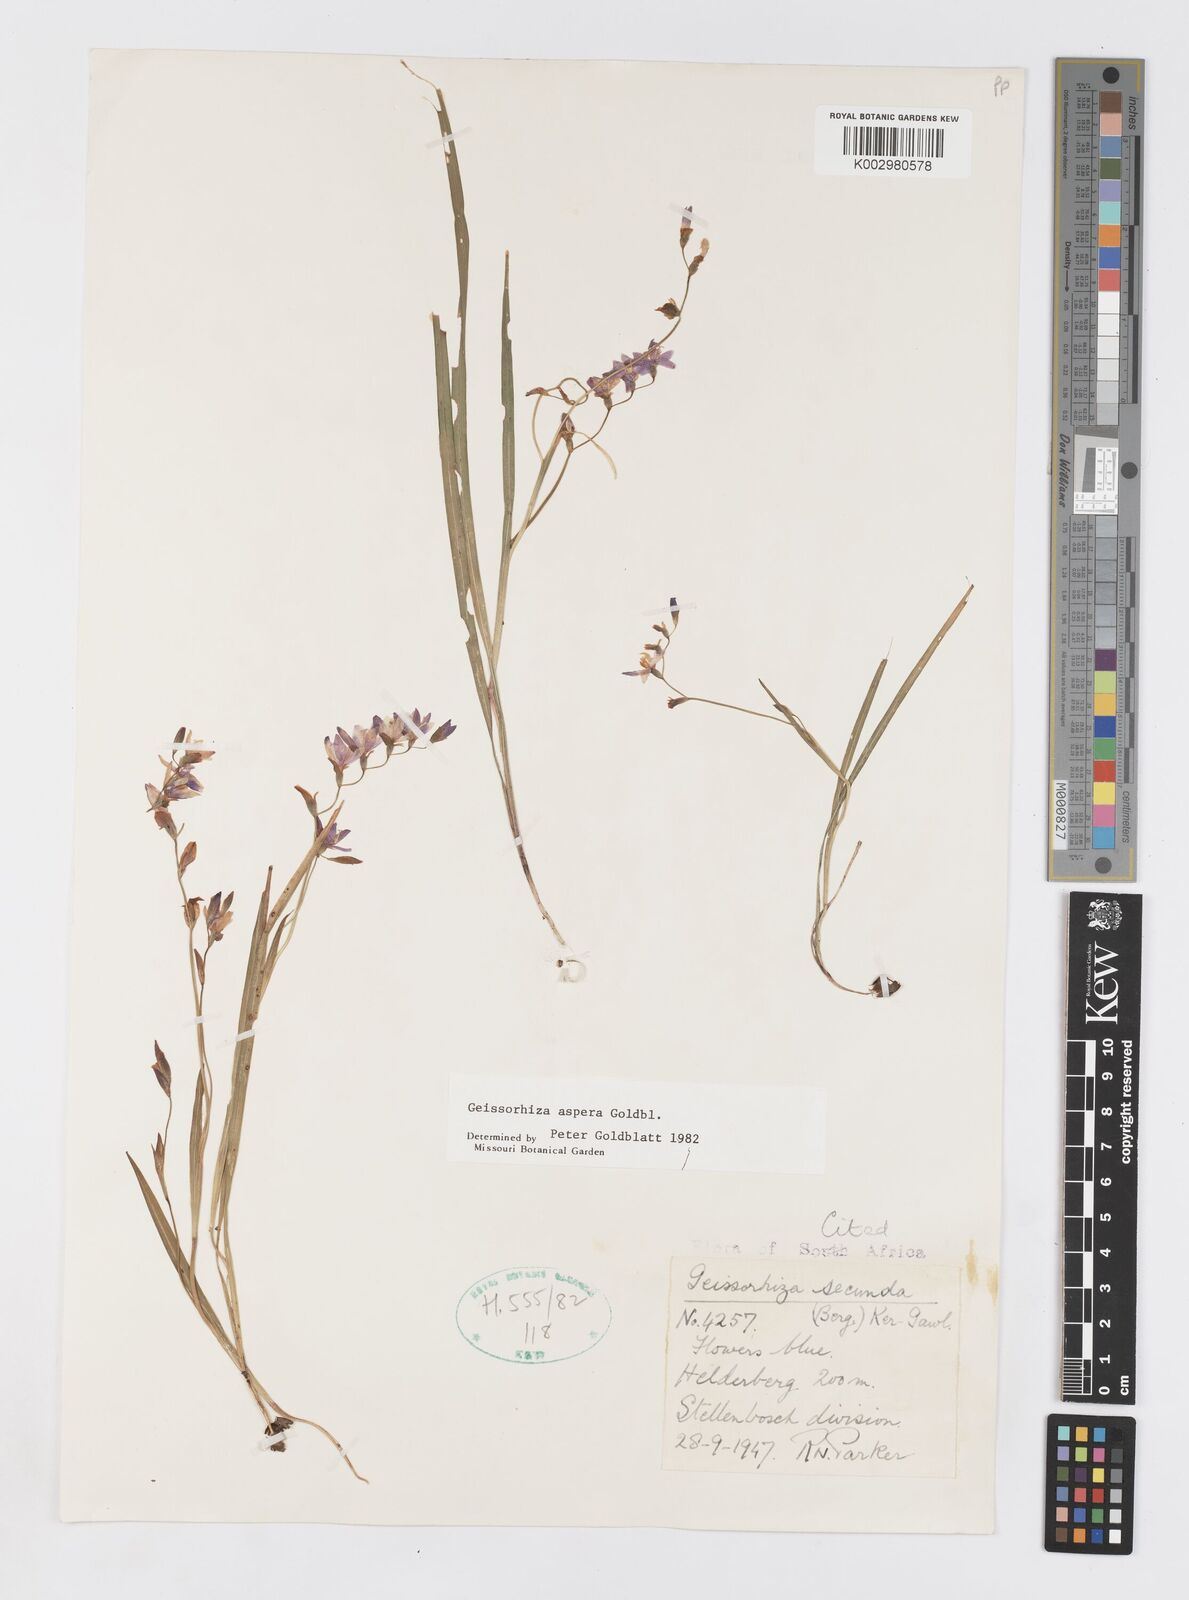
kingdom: Plantae
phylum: Tracheophyta
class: Liliopsida
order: Asparagales
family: Iridaceae
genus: Geissorhiza
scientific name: Geissorhiza aspera
